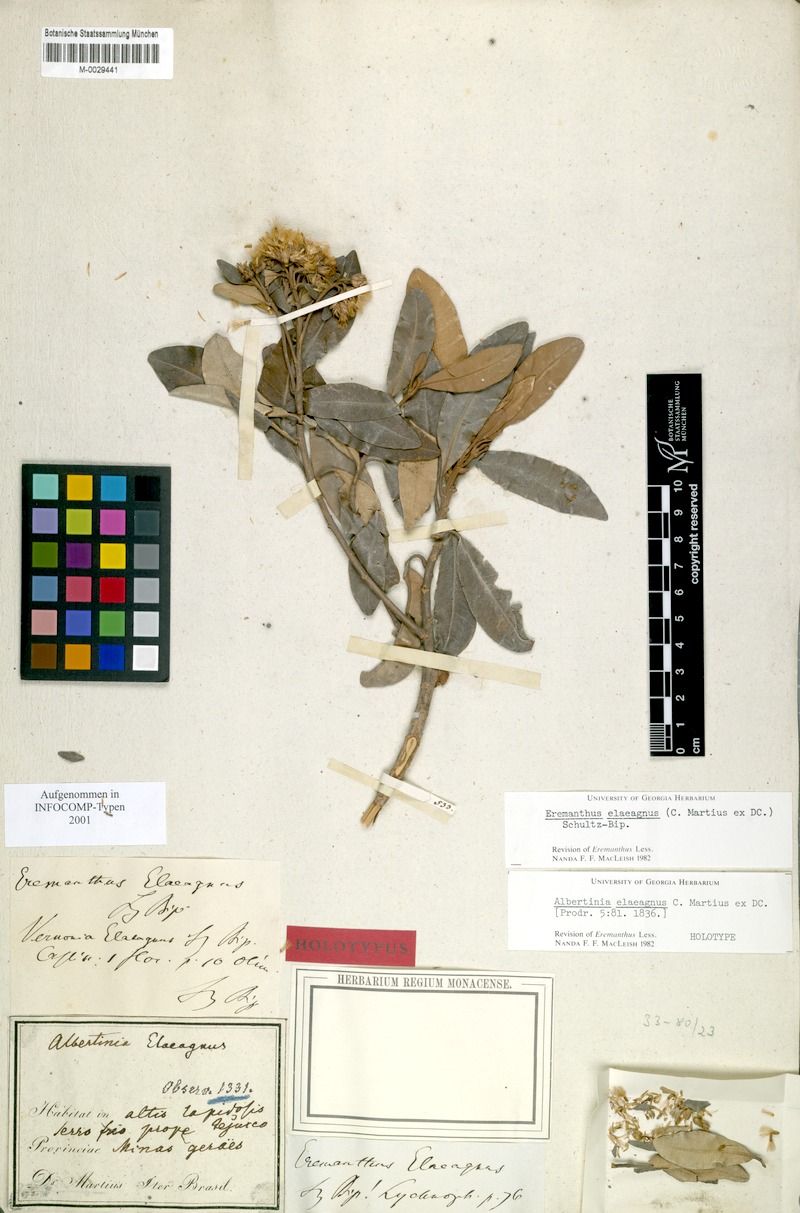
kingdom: Plantae
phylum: Tracheophyta
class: Magnoliopsida
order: Asterales
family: Asteraceae
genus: Eremanthus
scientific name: Eremanthus elaeagnus
